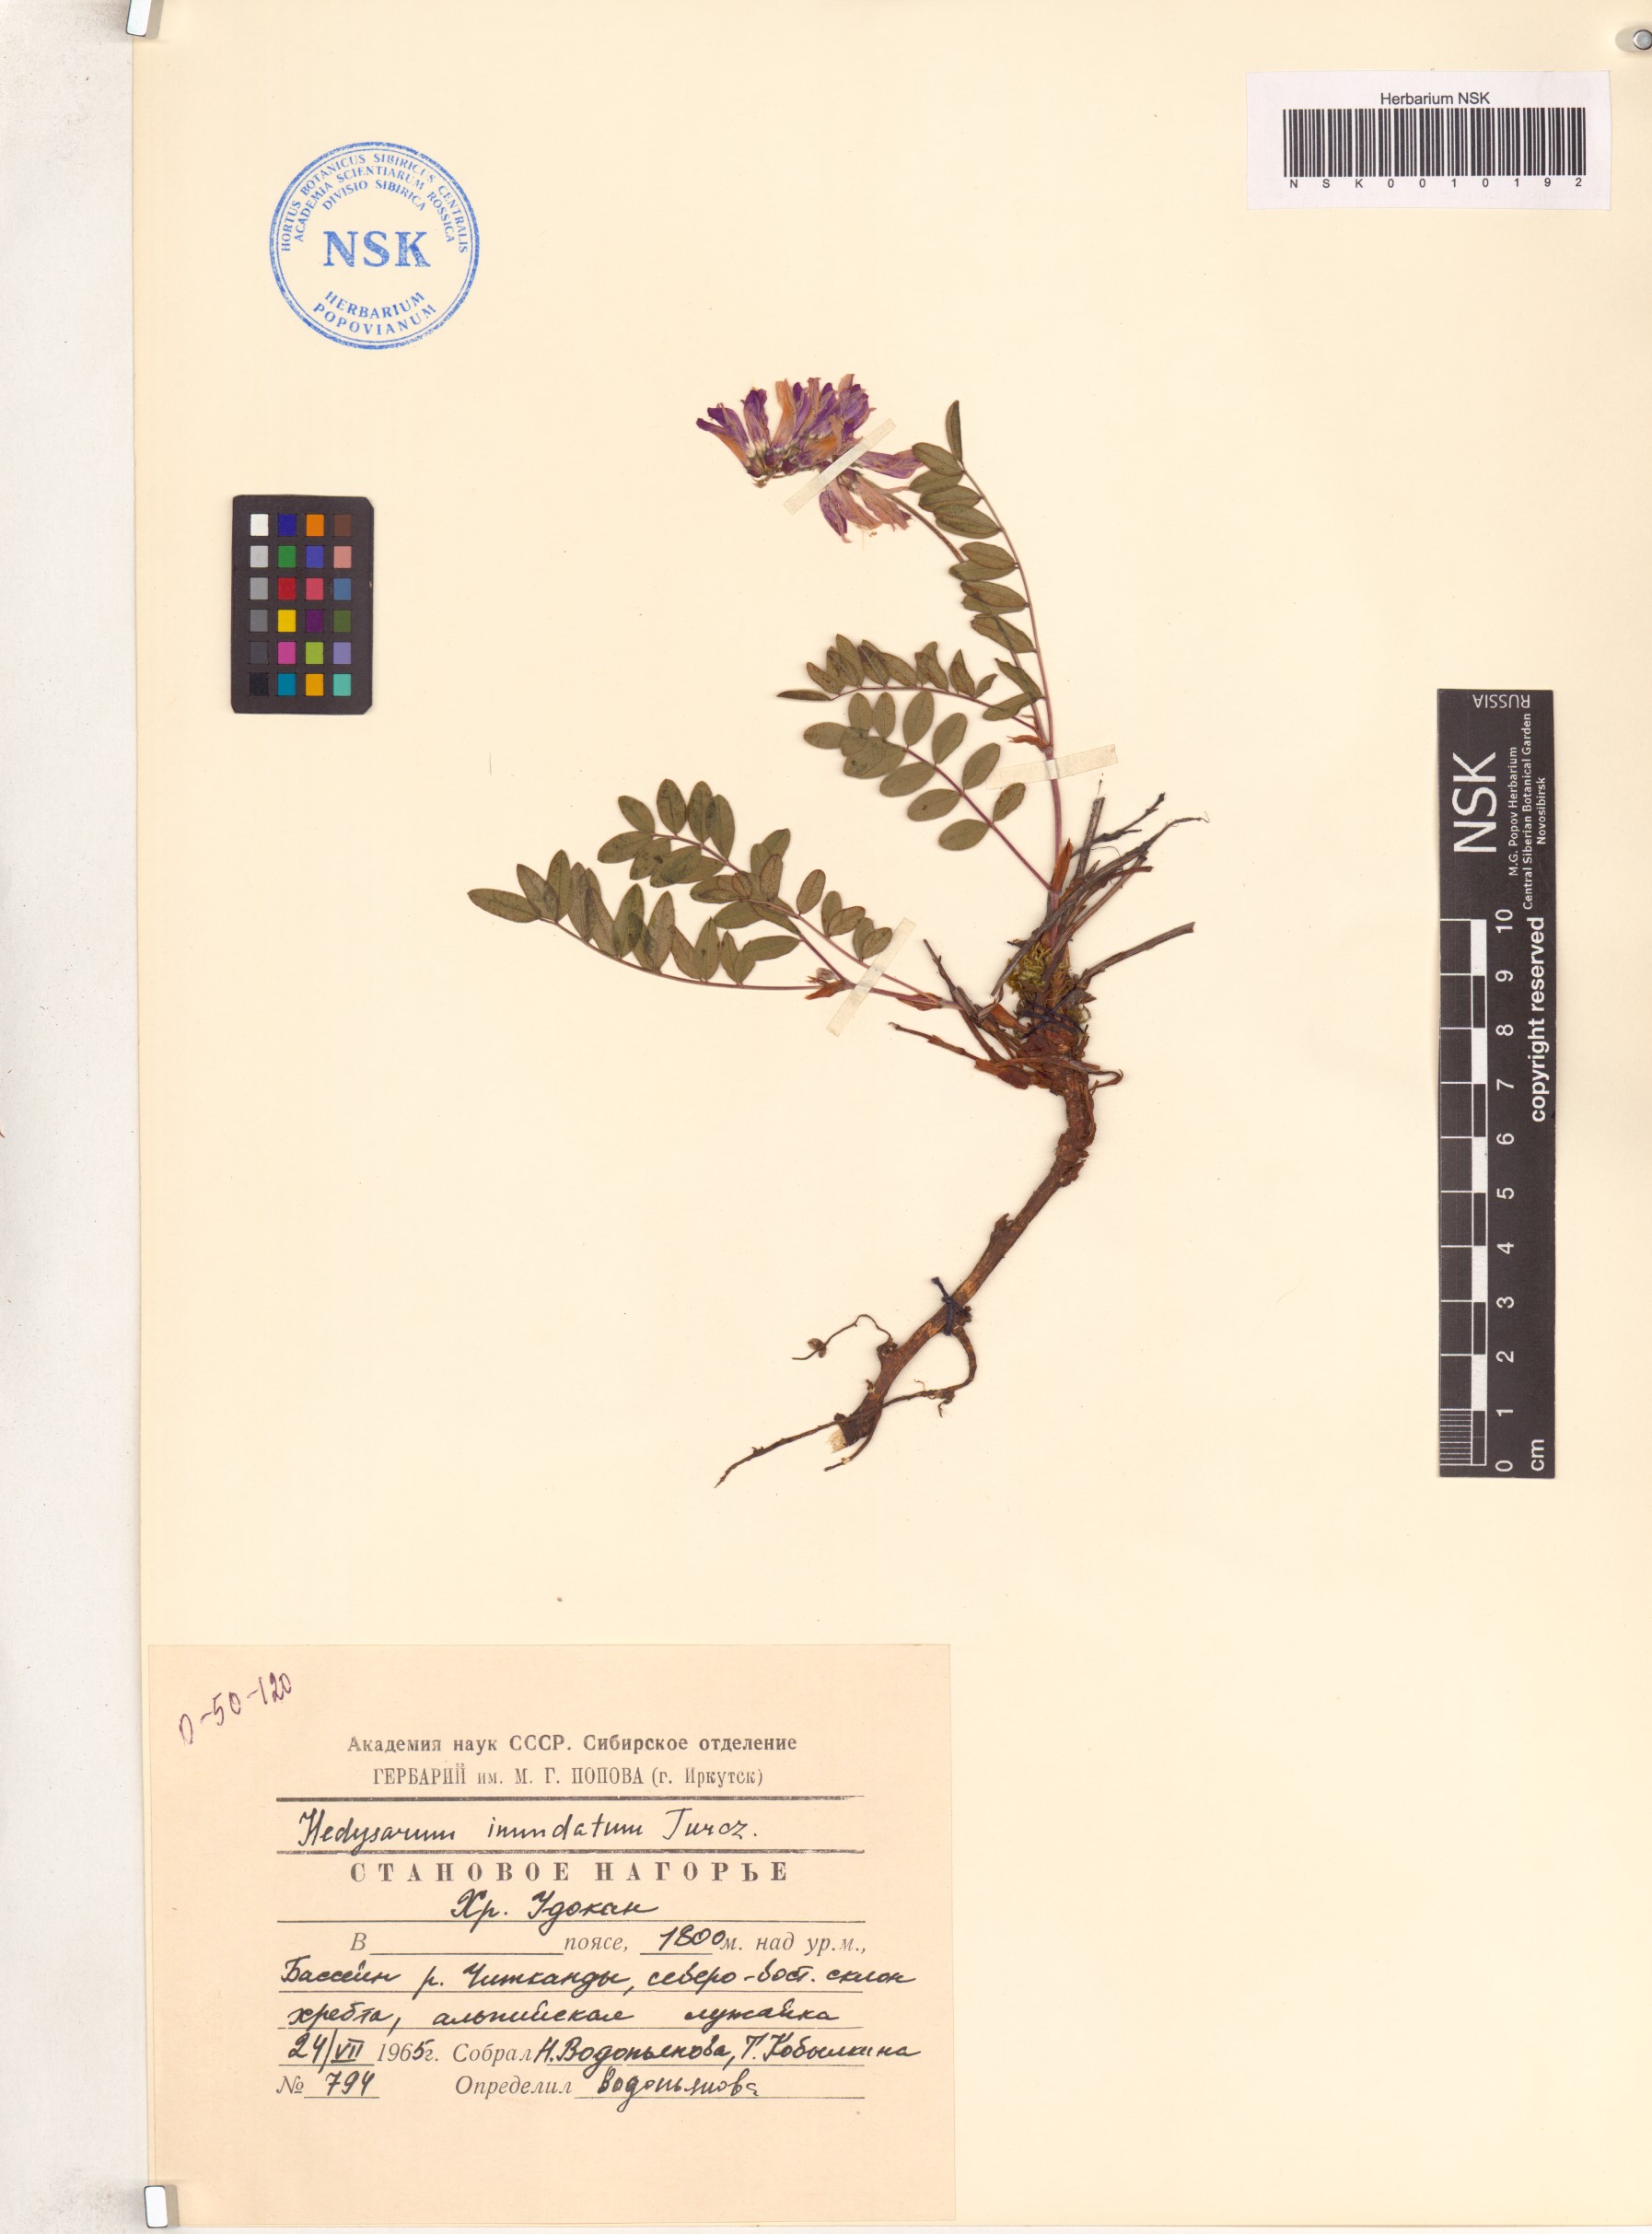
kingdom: Plantae
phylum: Tracheophyta
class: Magnoliopsida
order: Fabales
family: Fabaceae
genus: Hedysarum
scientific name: Hedysarum inundatum
